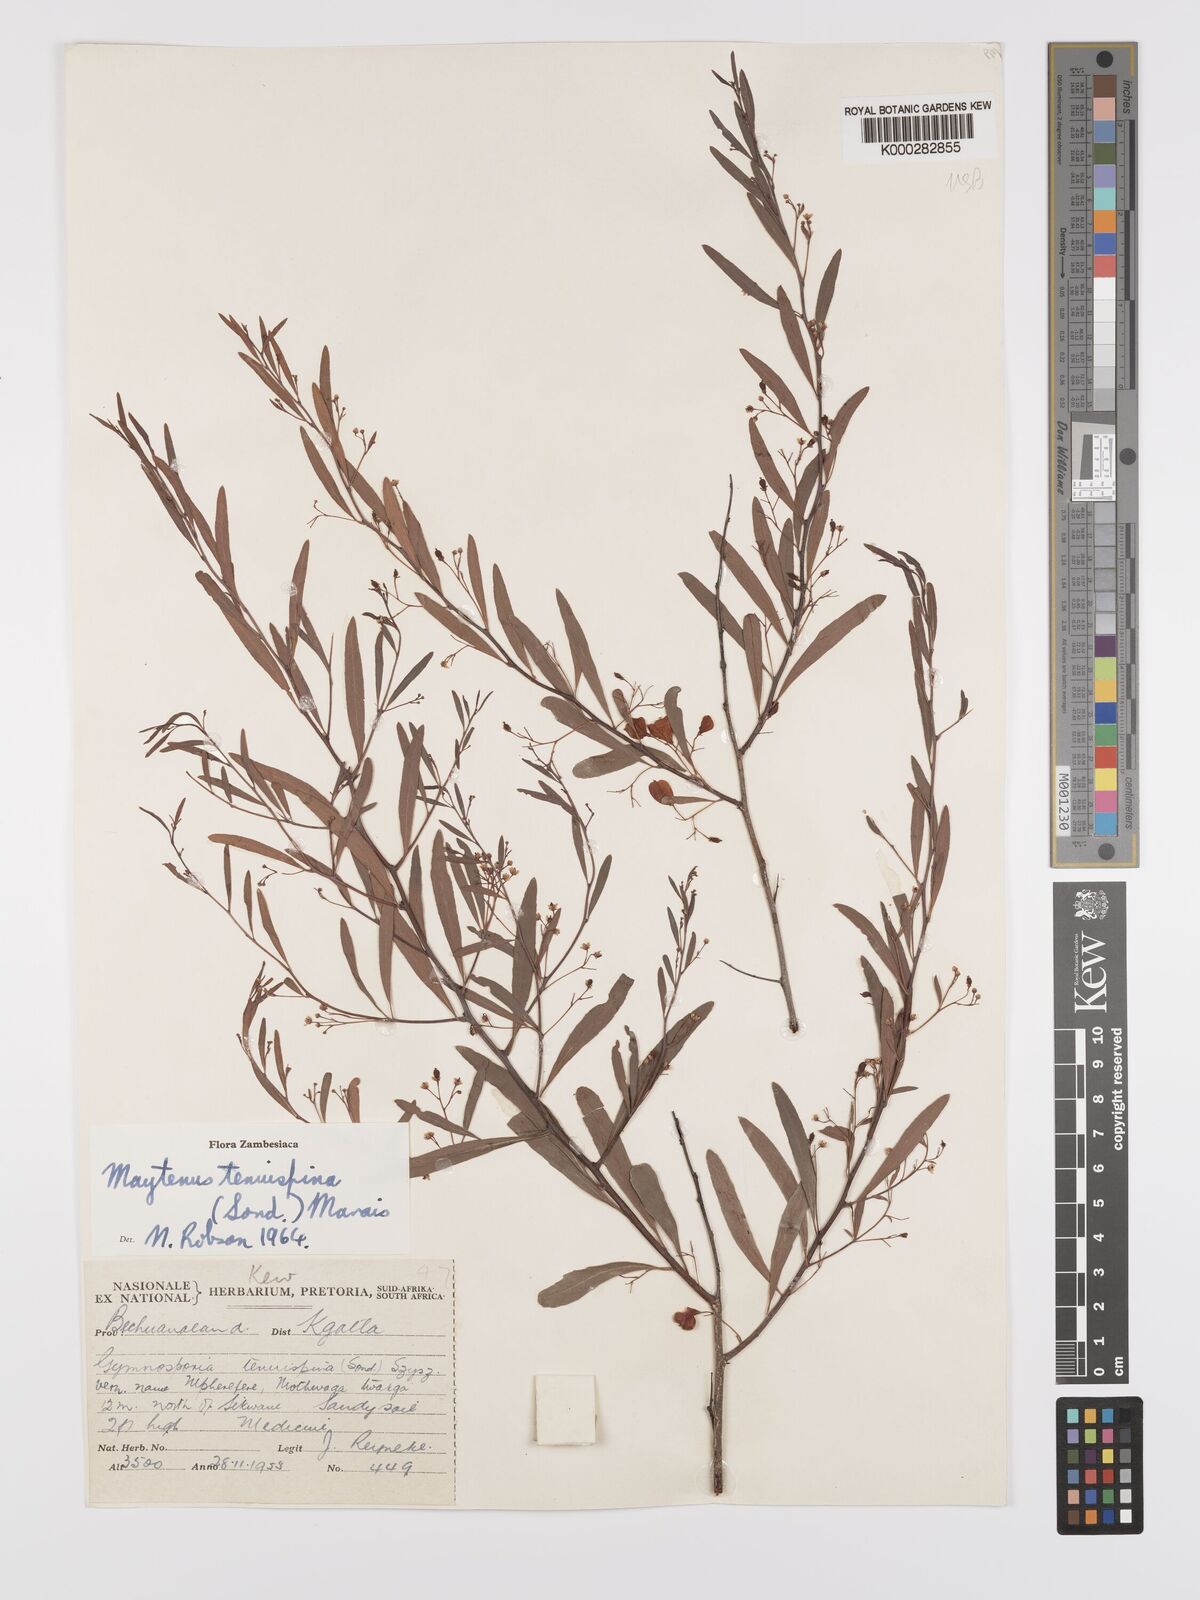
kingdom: Plantae
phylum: Tracheophyta
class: Magnoliopsida
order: Celastrales
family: Celastraceae
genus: Gymnosporia
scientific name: Gymnosporia tenuispina
